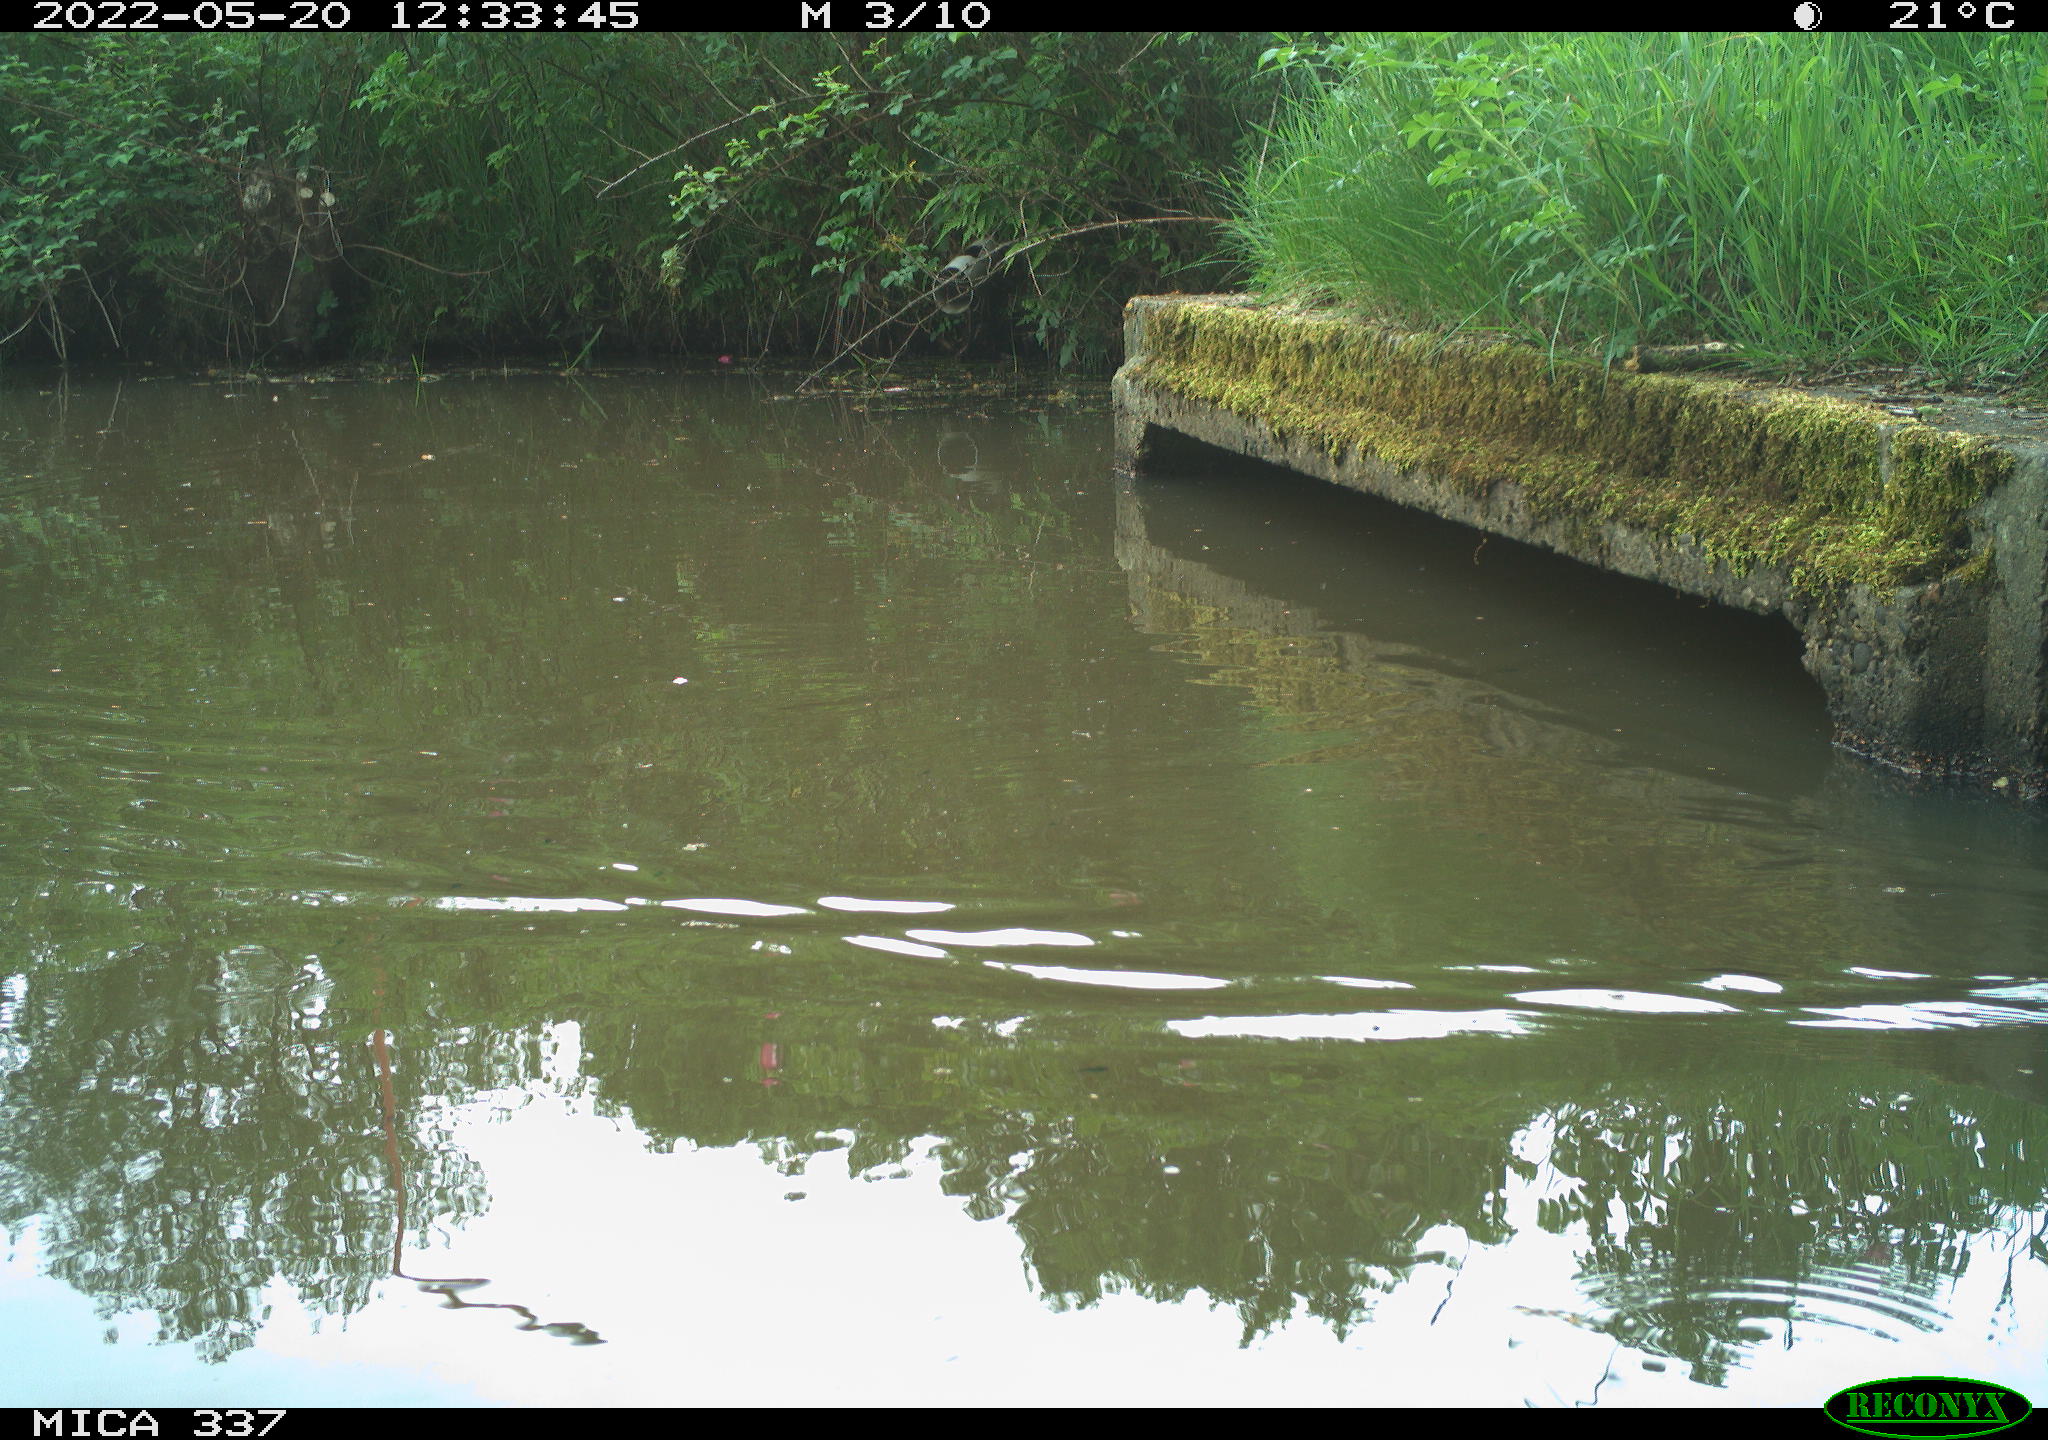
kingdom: Animalia
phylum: Chordata
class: Aves
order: Gruiformes
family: Rallidae
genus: Gallinula
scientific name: Gallinula chloropus
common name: Common moorhen
